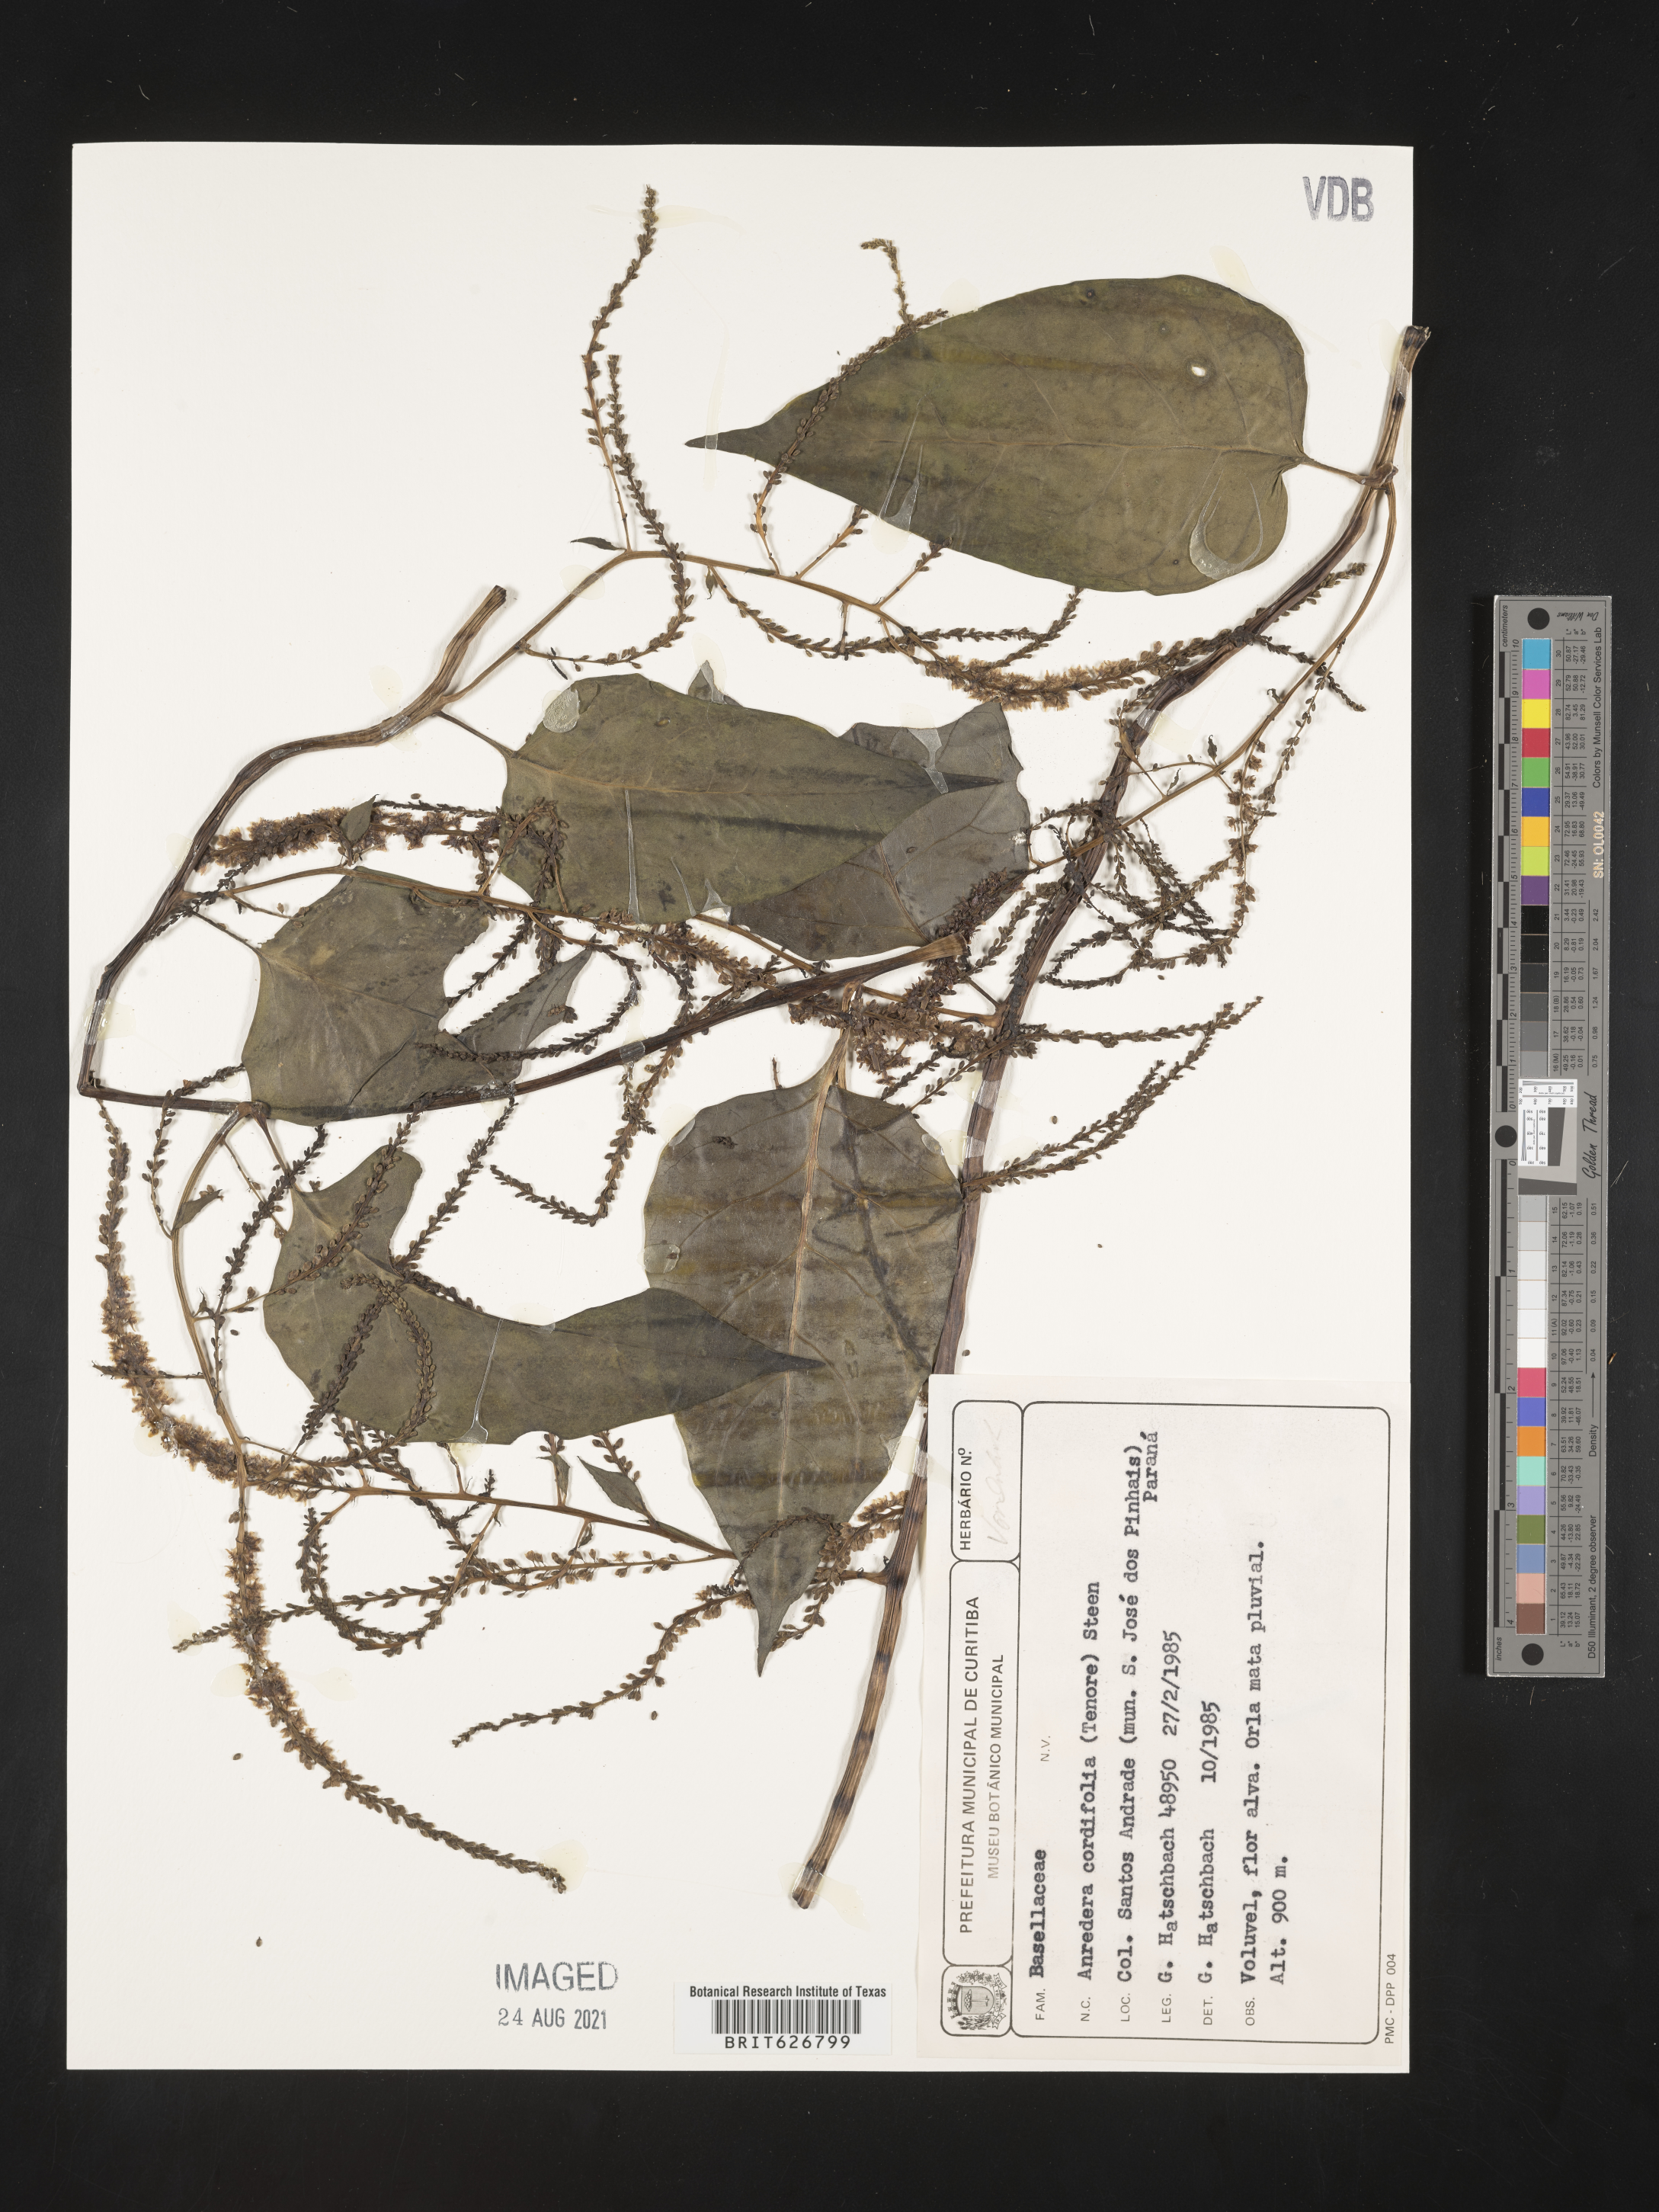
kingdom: Plantae
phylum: Tracheophyta
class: Magnoliopsida
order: Caryophyllales
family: Basellaceae
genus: Anredera
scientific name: Anredera cordifolia
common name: Heartleaf madeiravine
